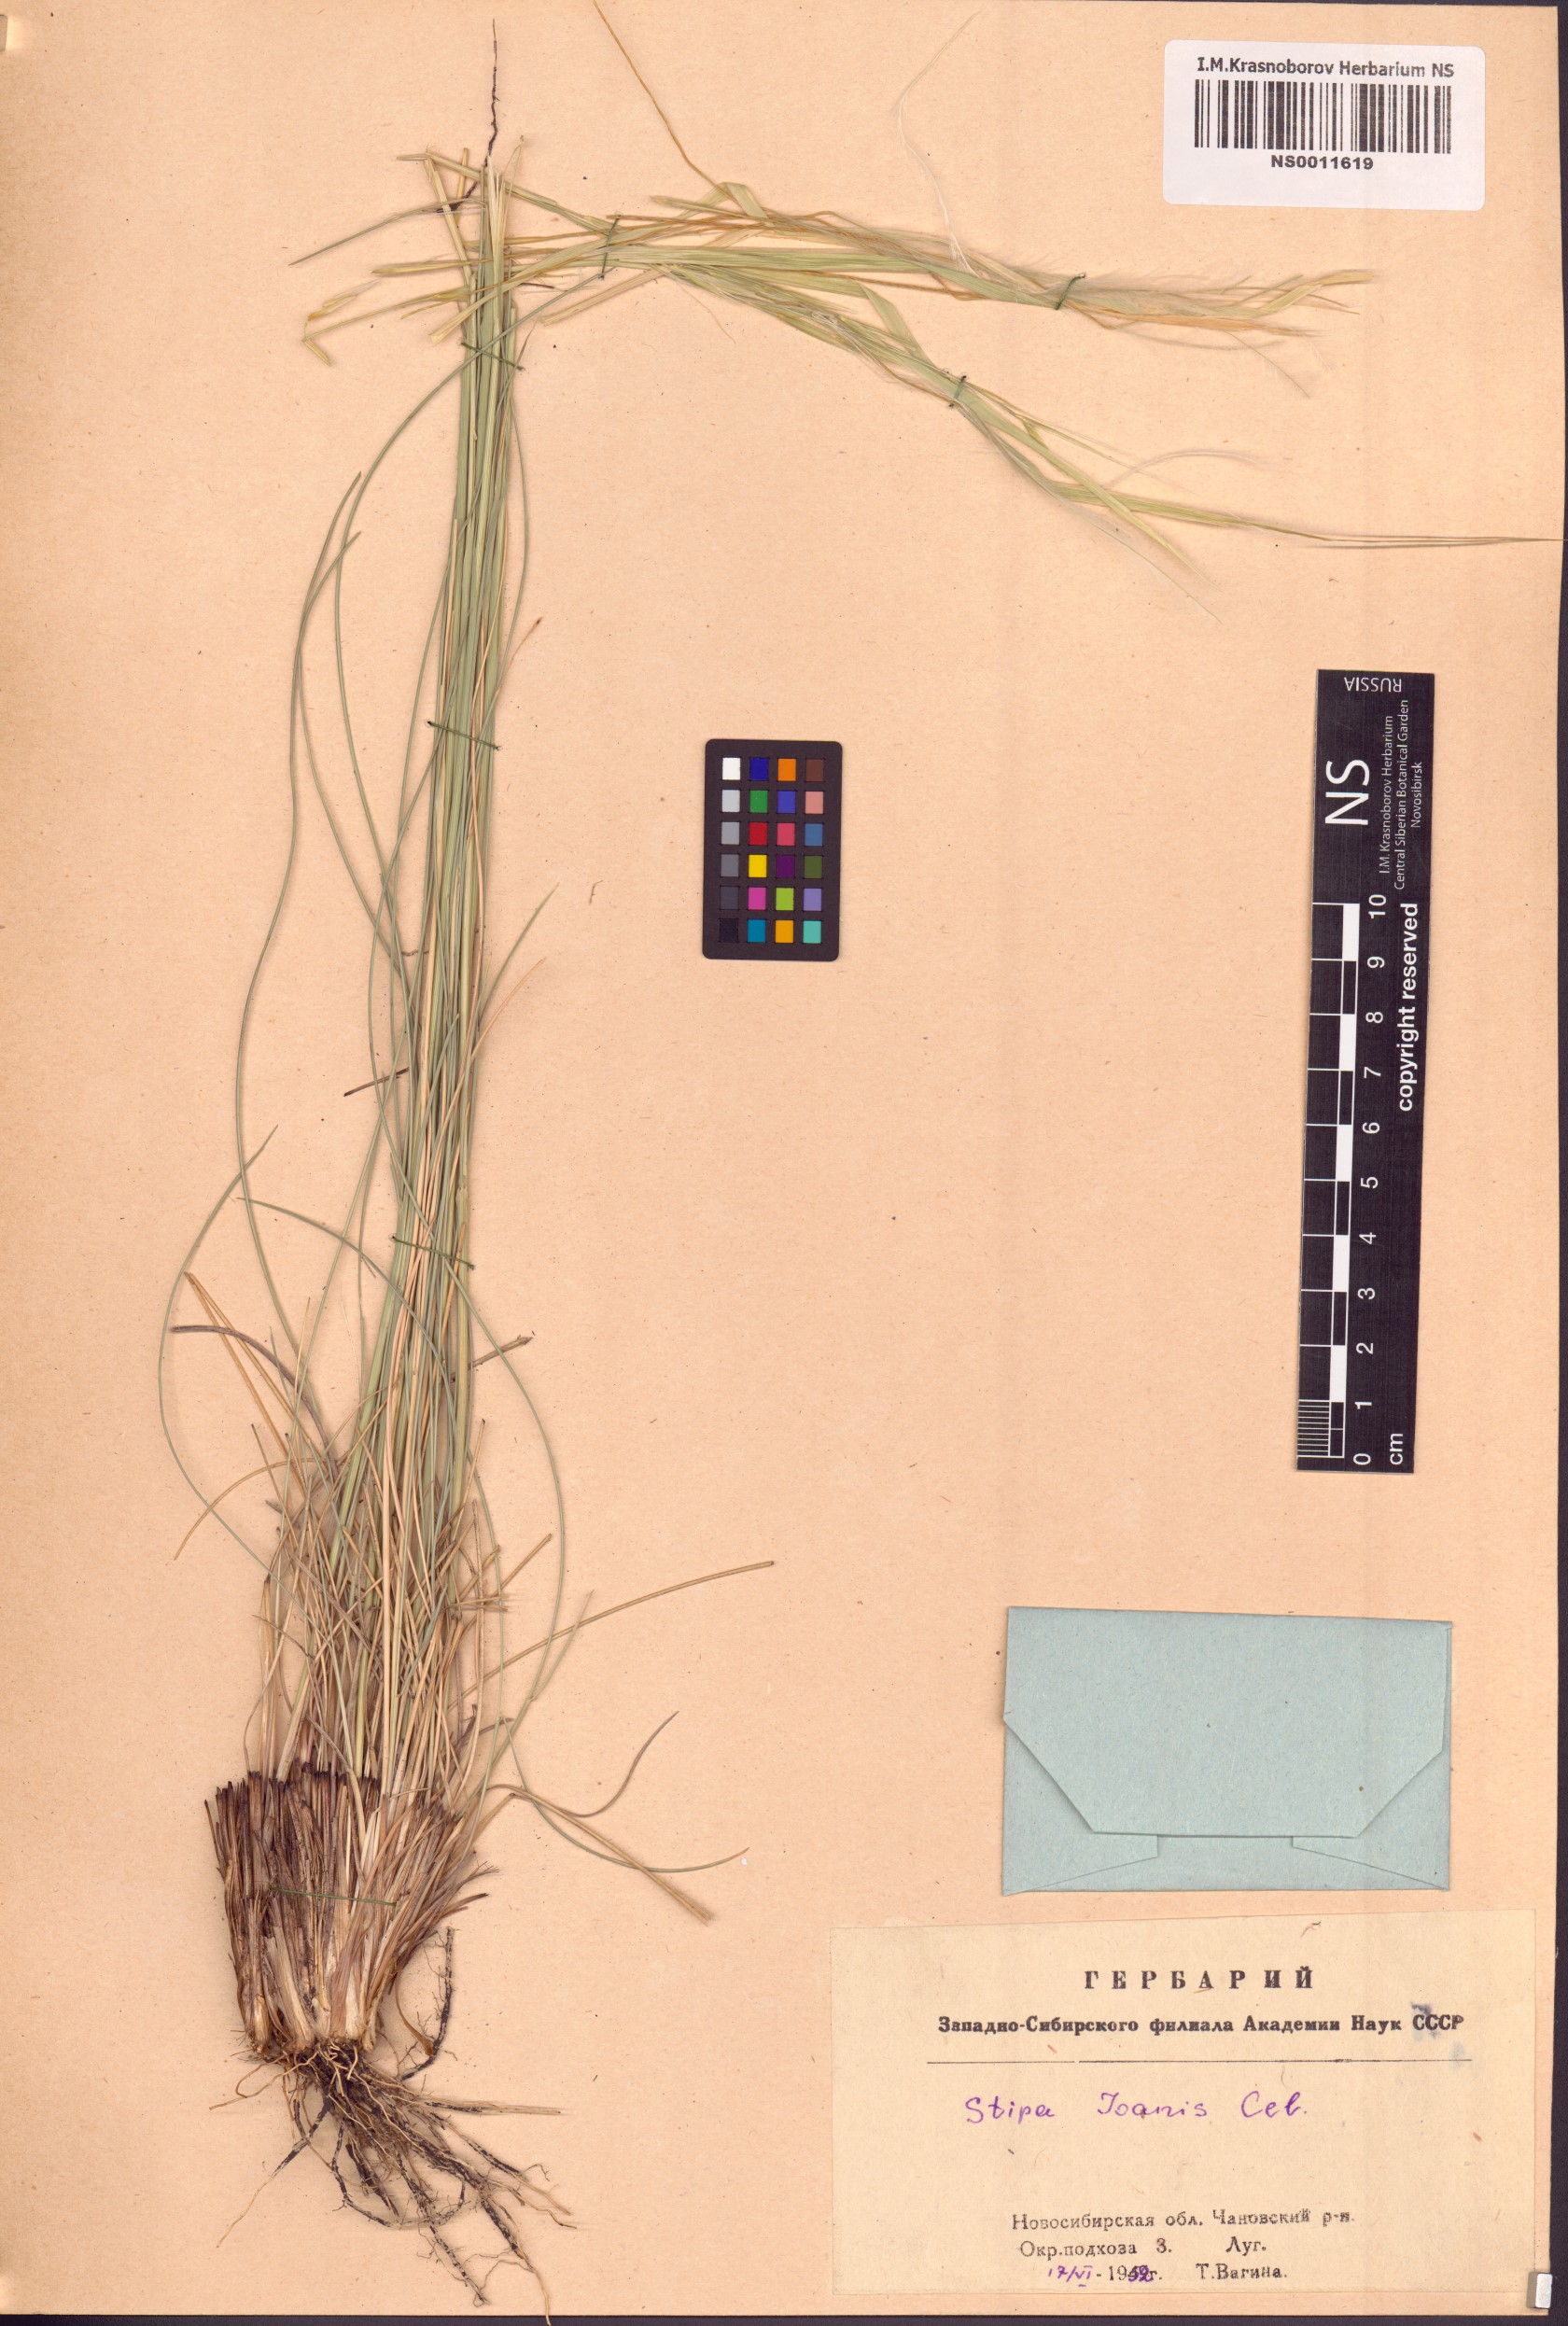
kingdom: Plantae
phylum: Tracheophyta
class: Liliopsida
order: Poales
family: Poaceae
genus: Stipa
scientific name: Stipa pennata
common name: European feather grass
